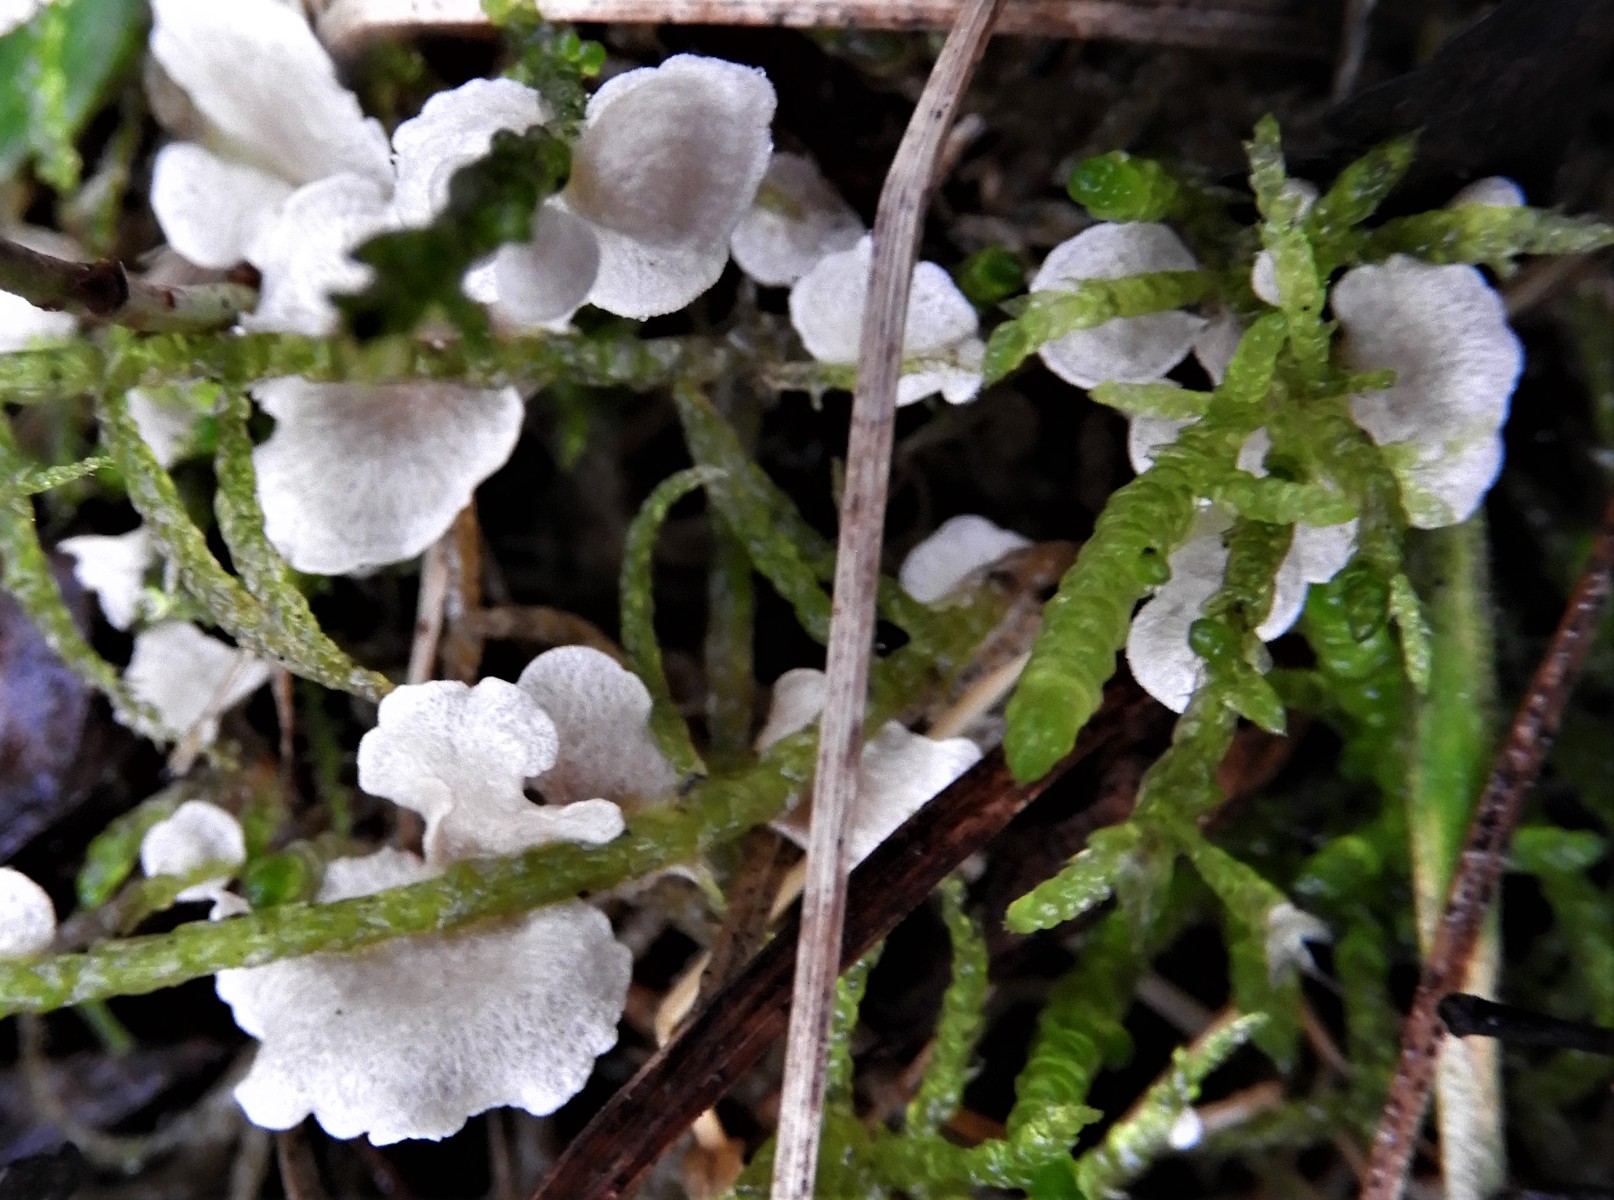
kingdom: Fungi
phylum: Basidiomycota
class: Agaricomycetes
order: Agaricales
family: Hygrophoraceae
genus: Arrhenia
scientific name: Arrhenia retiruga
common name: lille fontænehat
